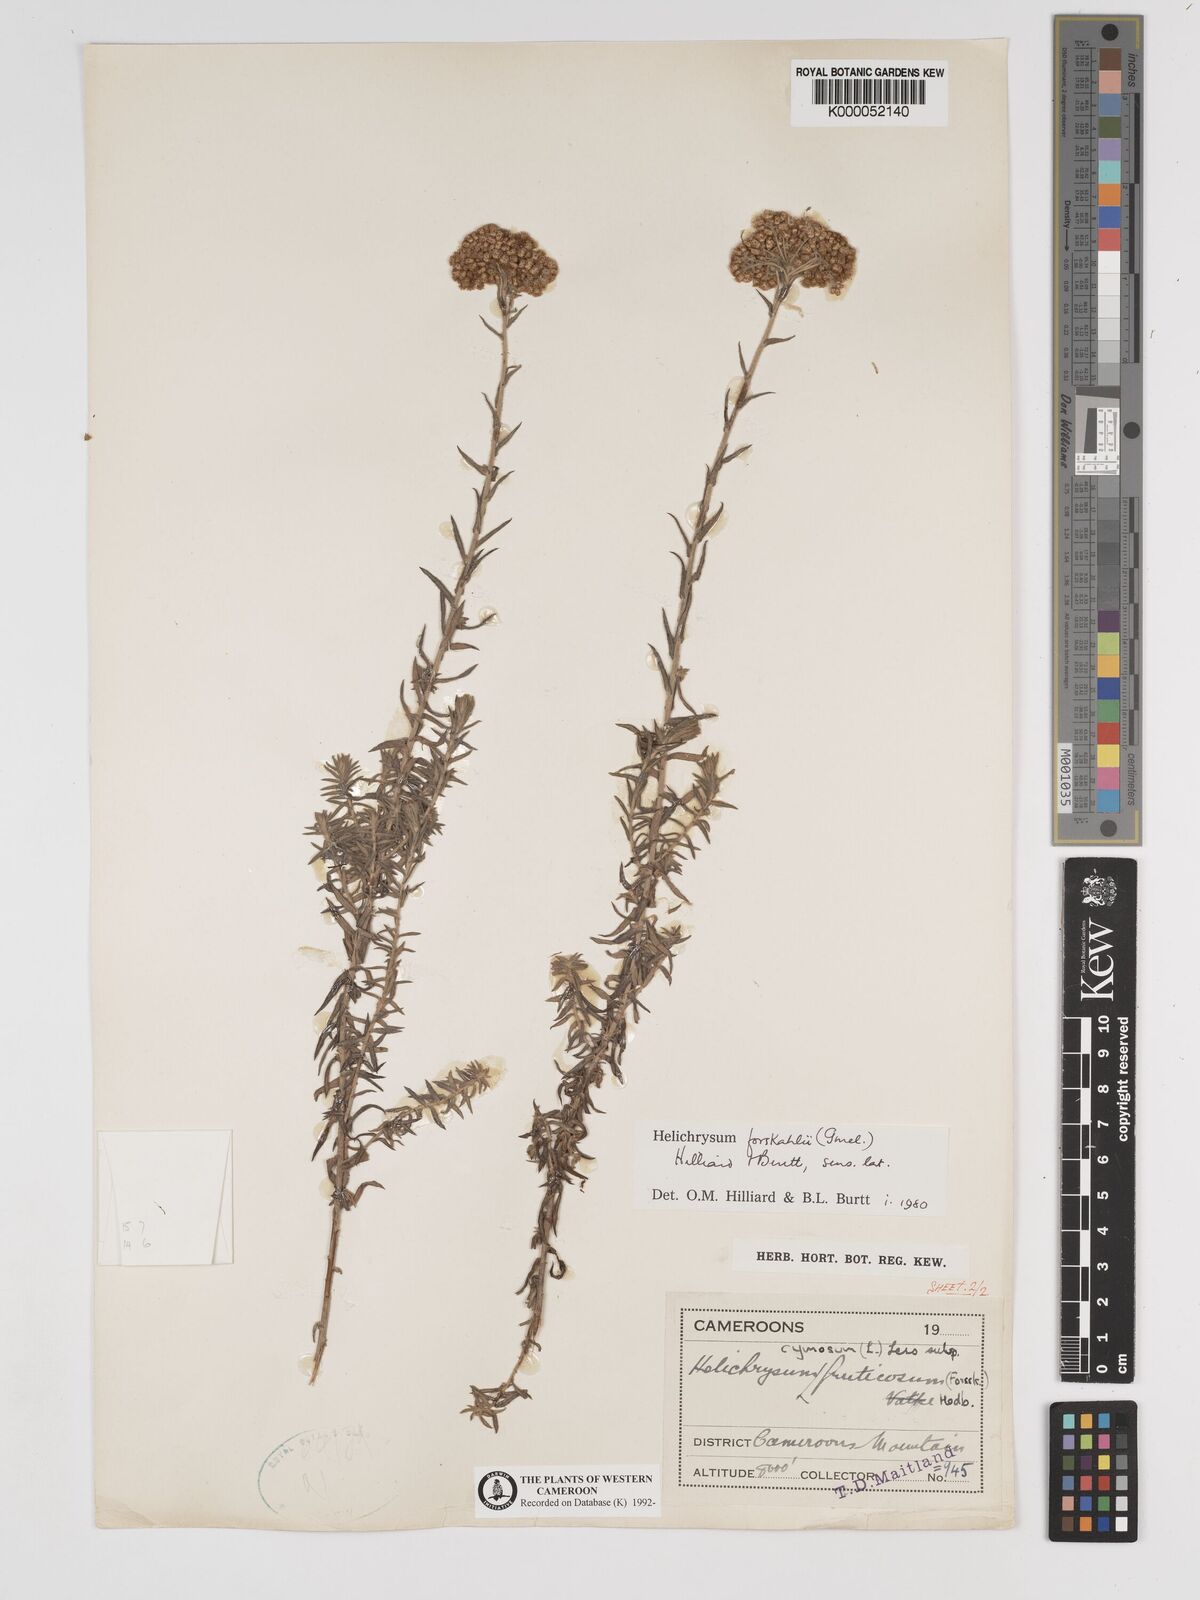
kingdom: Plantae
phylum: Tracheophyta
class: Magnoliopsida
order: Asterales
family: Asteraceae
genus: Helichrysum
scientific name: Helichrysum forskahlii
